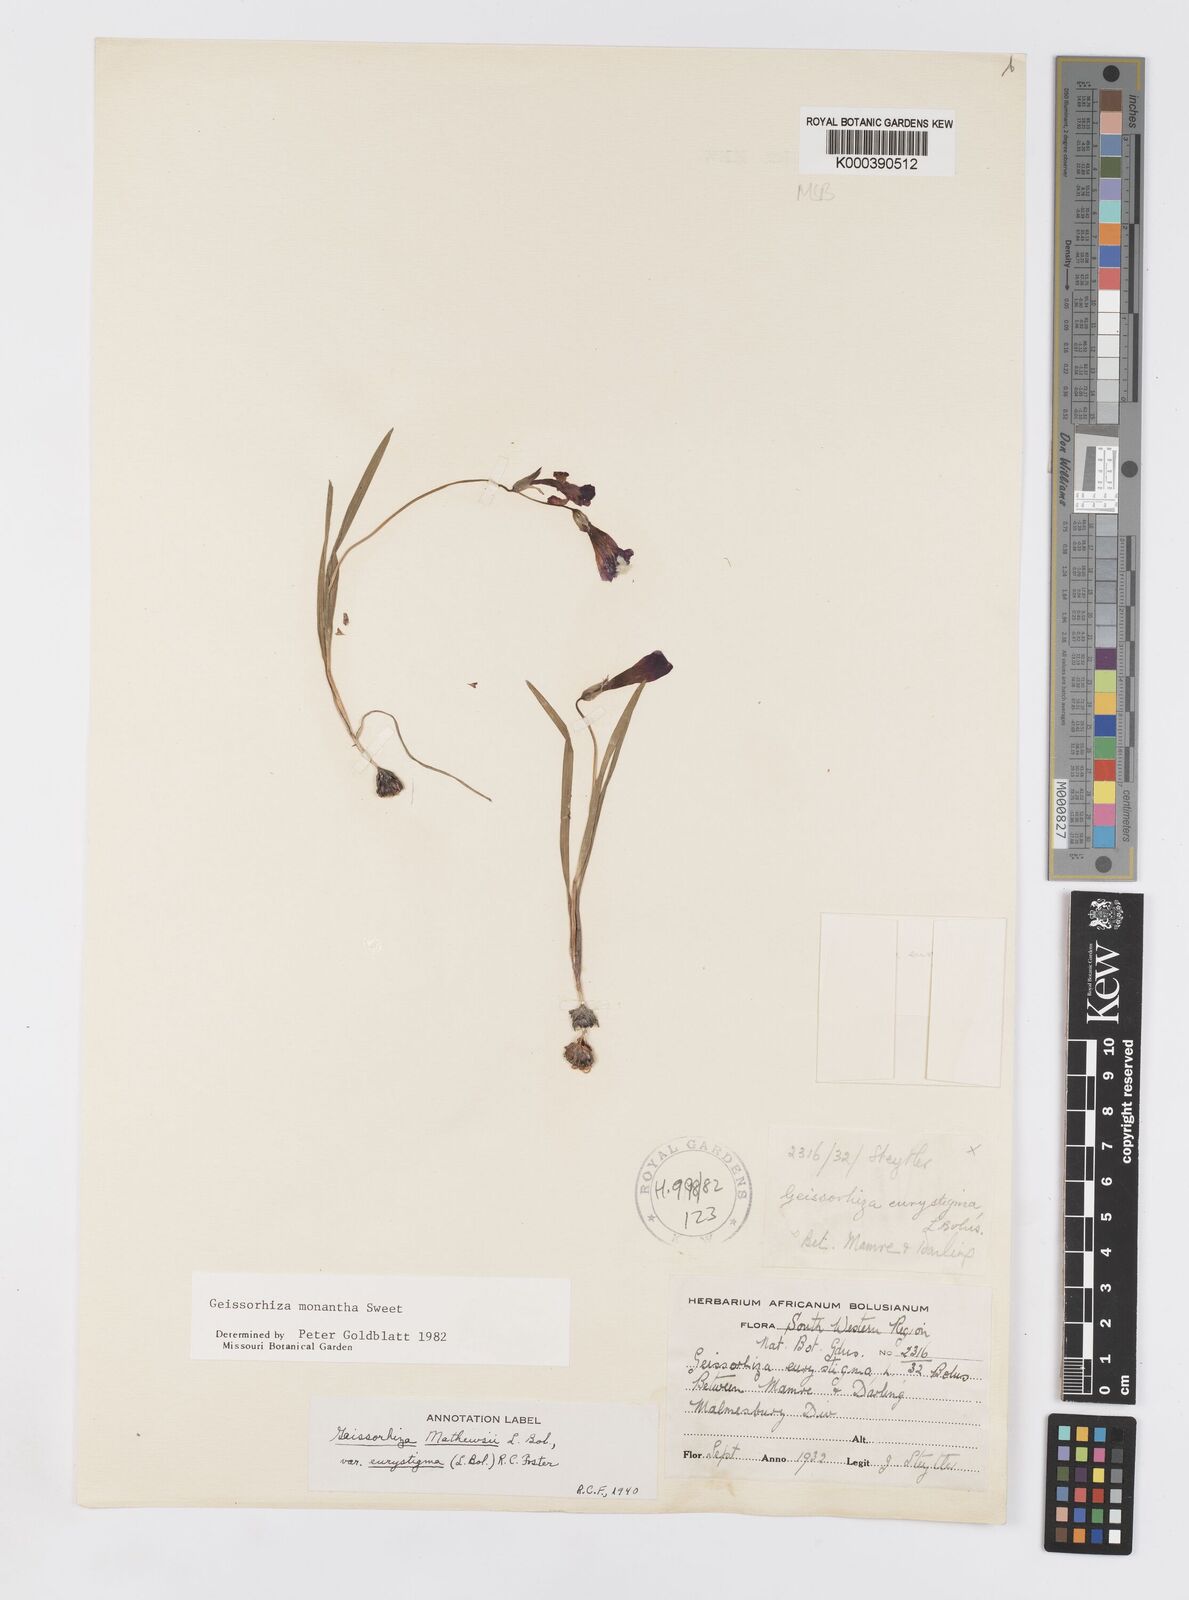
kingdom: Plantae
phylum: Tracheophyta
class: Liliopsida
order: Asparagales
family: Iridaceae
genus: Geissorhiza
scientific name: Geissorhiza eurystigma
